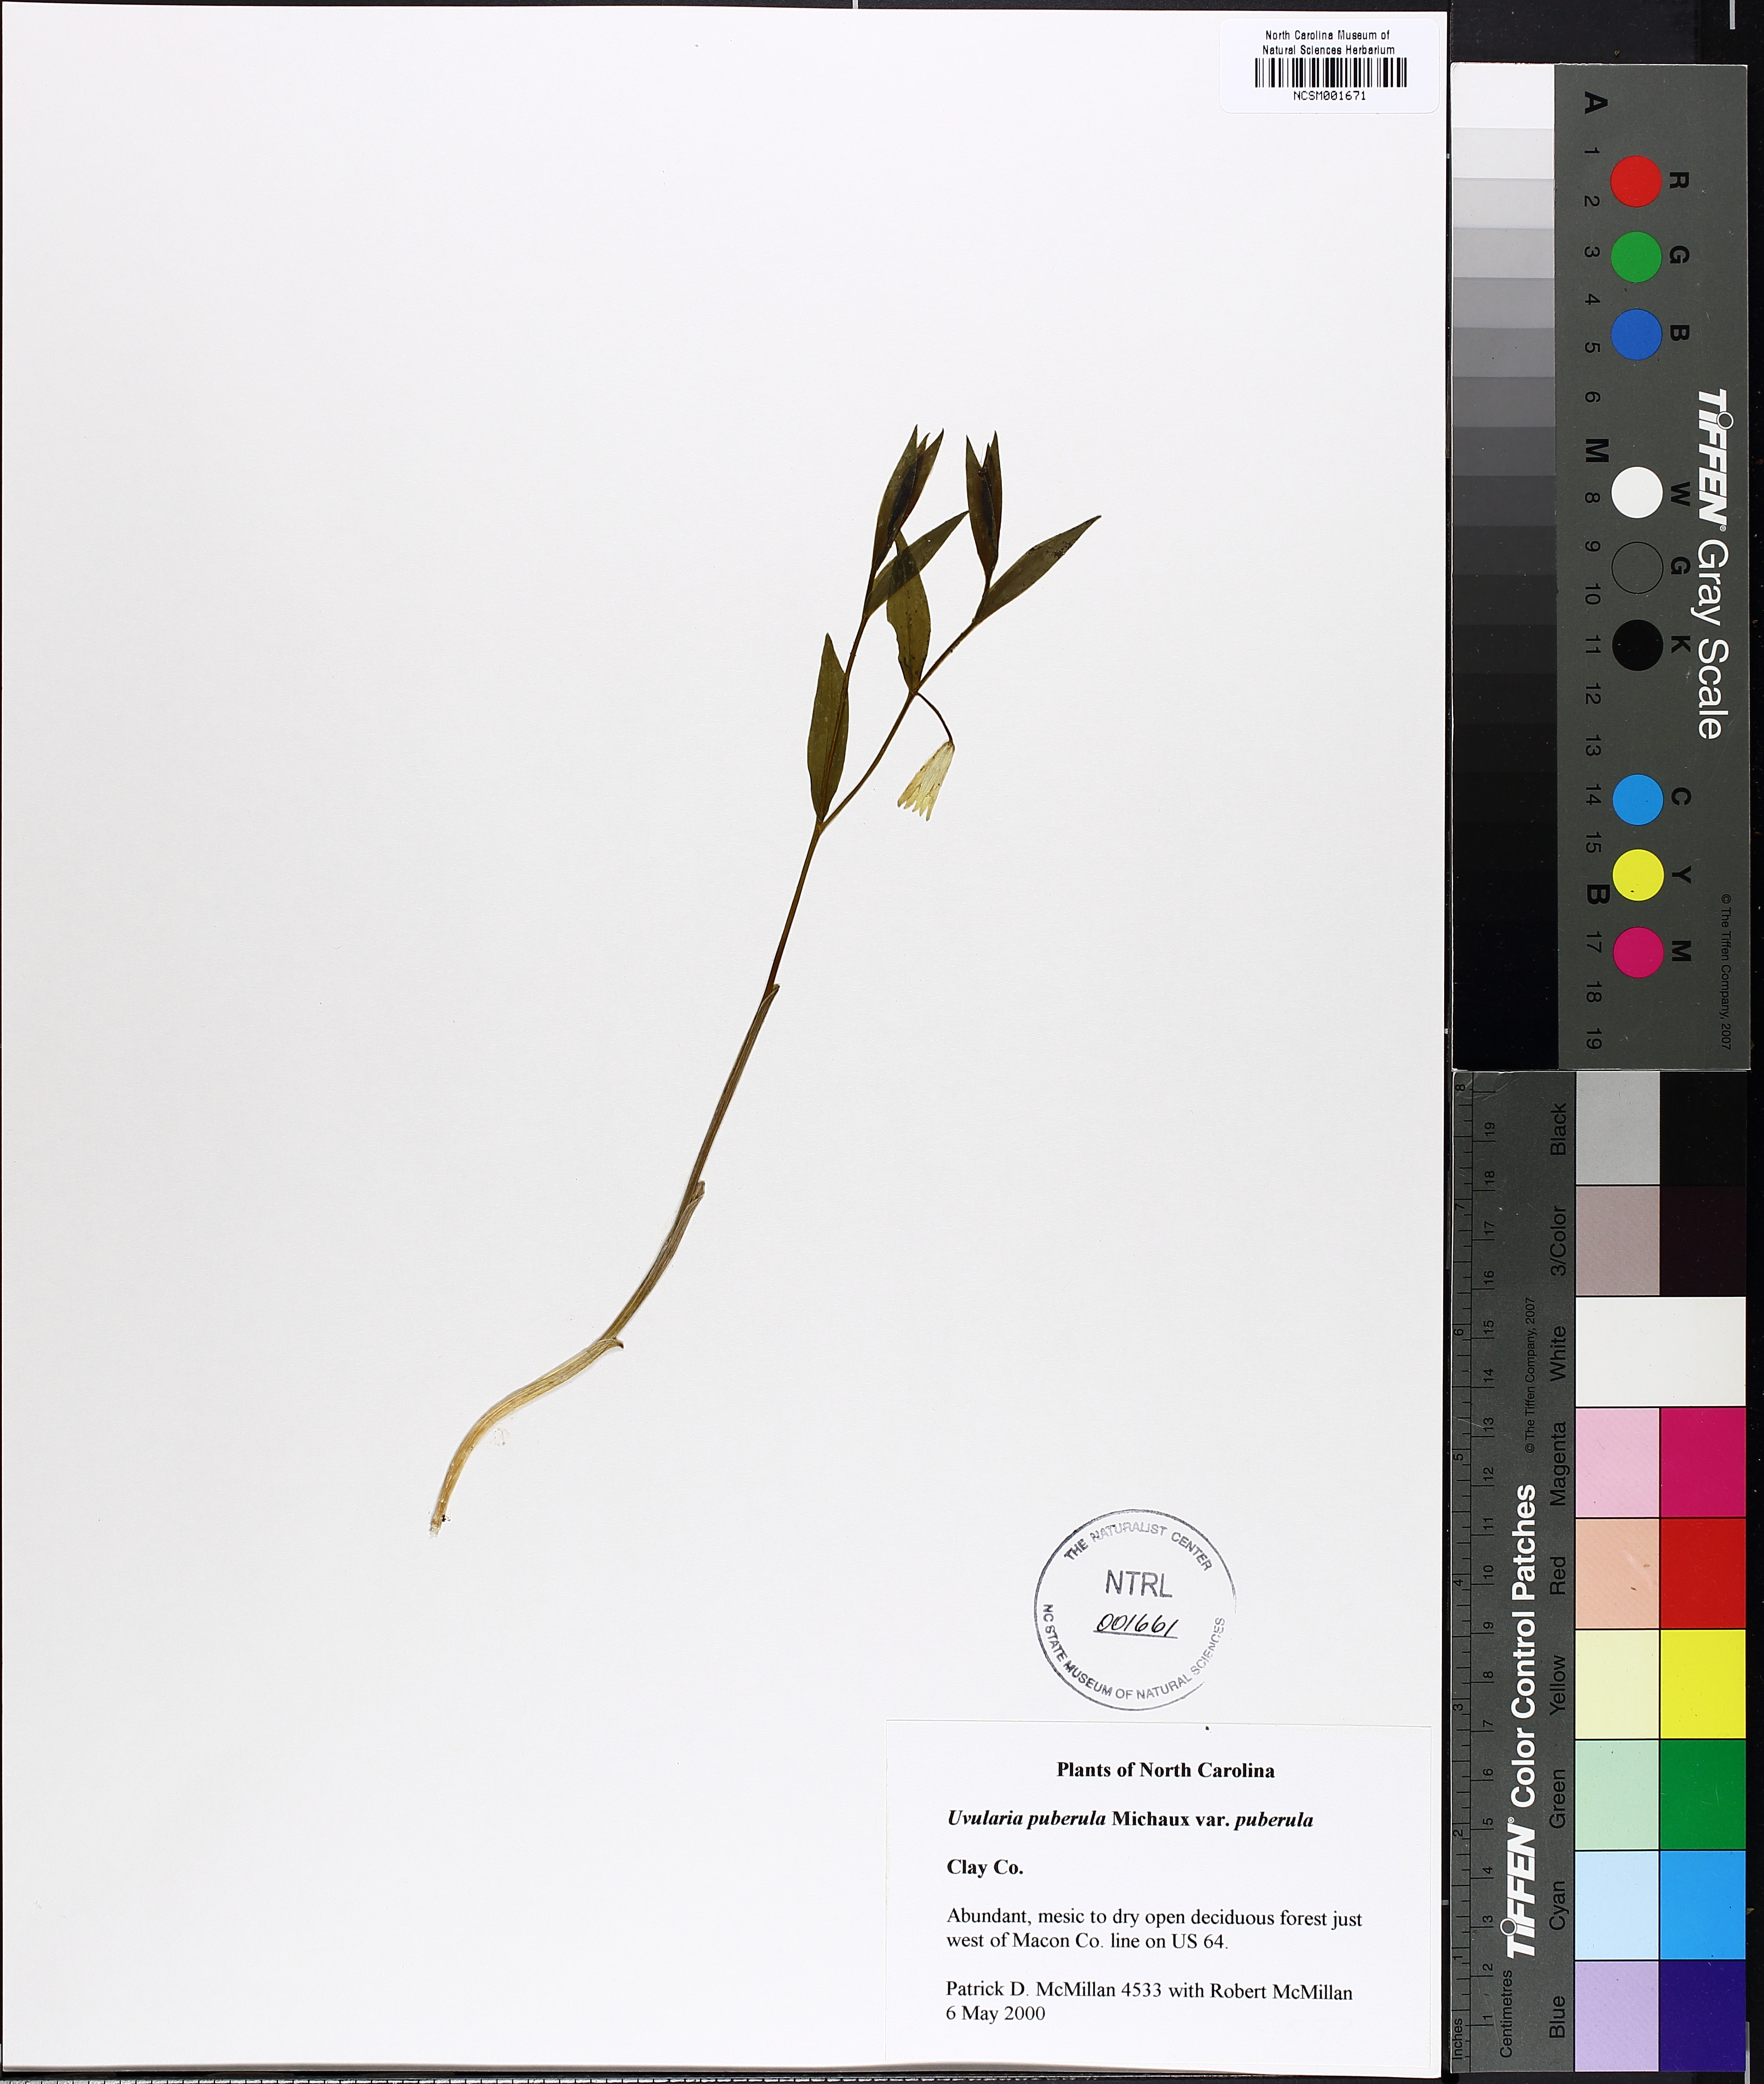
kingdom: Plantae
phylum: Tracheophyta
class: Liliopsida
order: Liliales
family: Colchicaceae
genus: Uvularia
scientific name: Uvularia puberula
